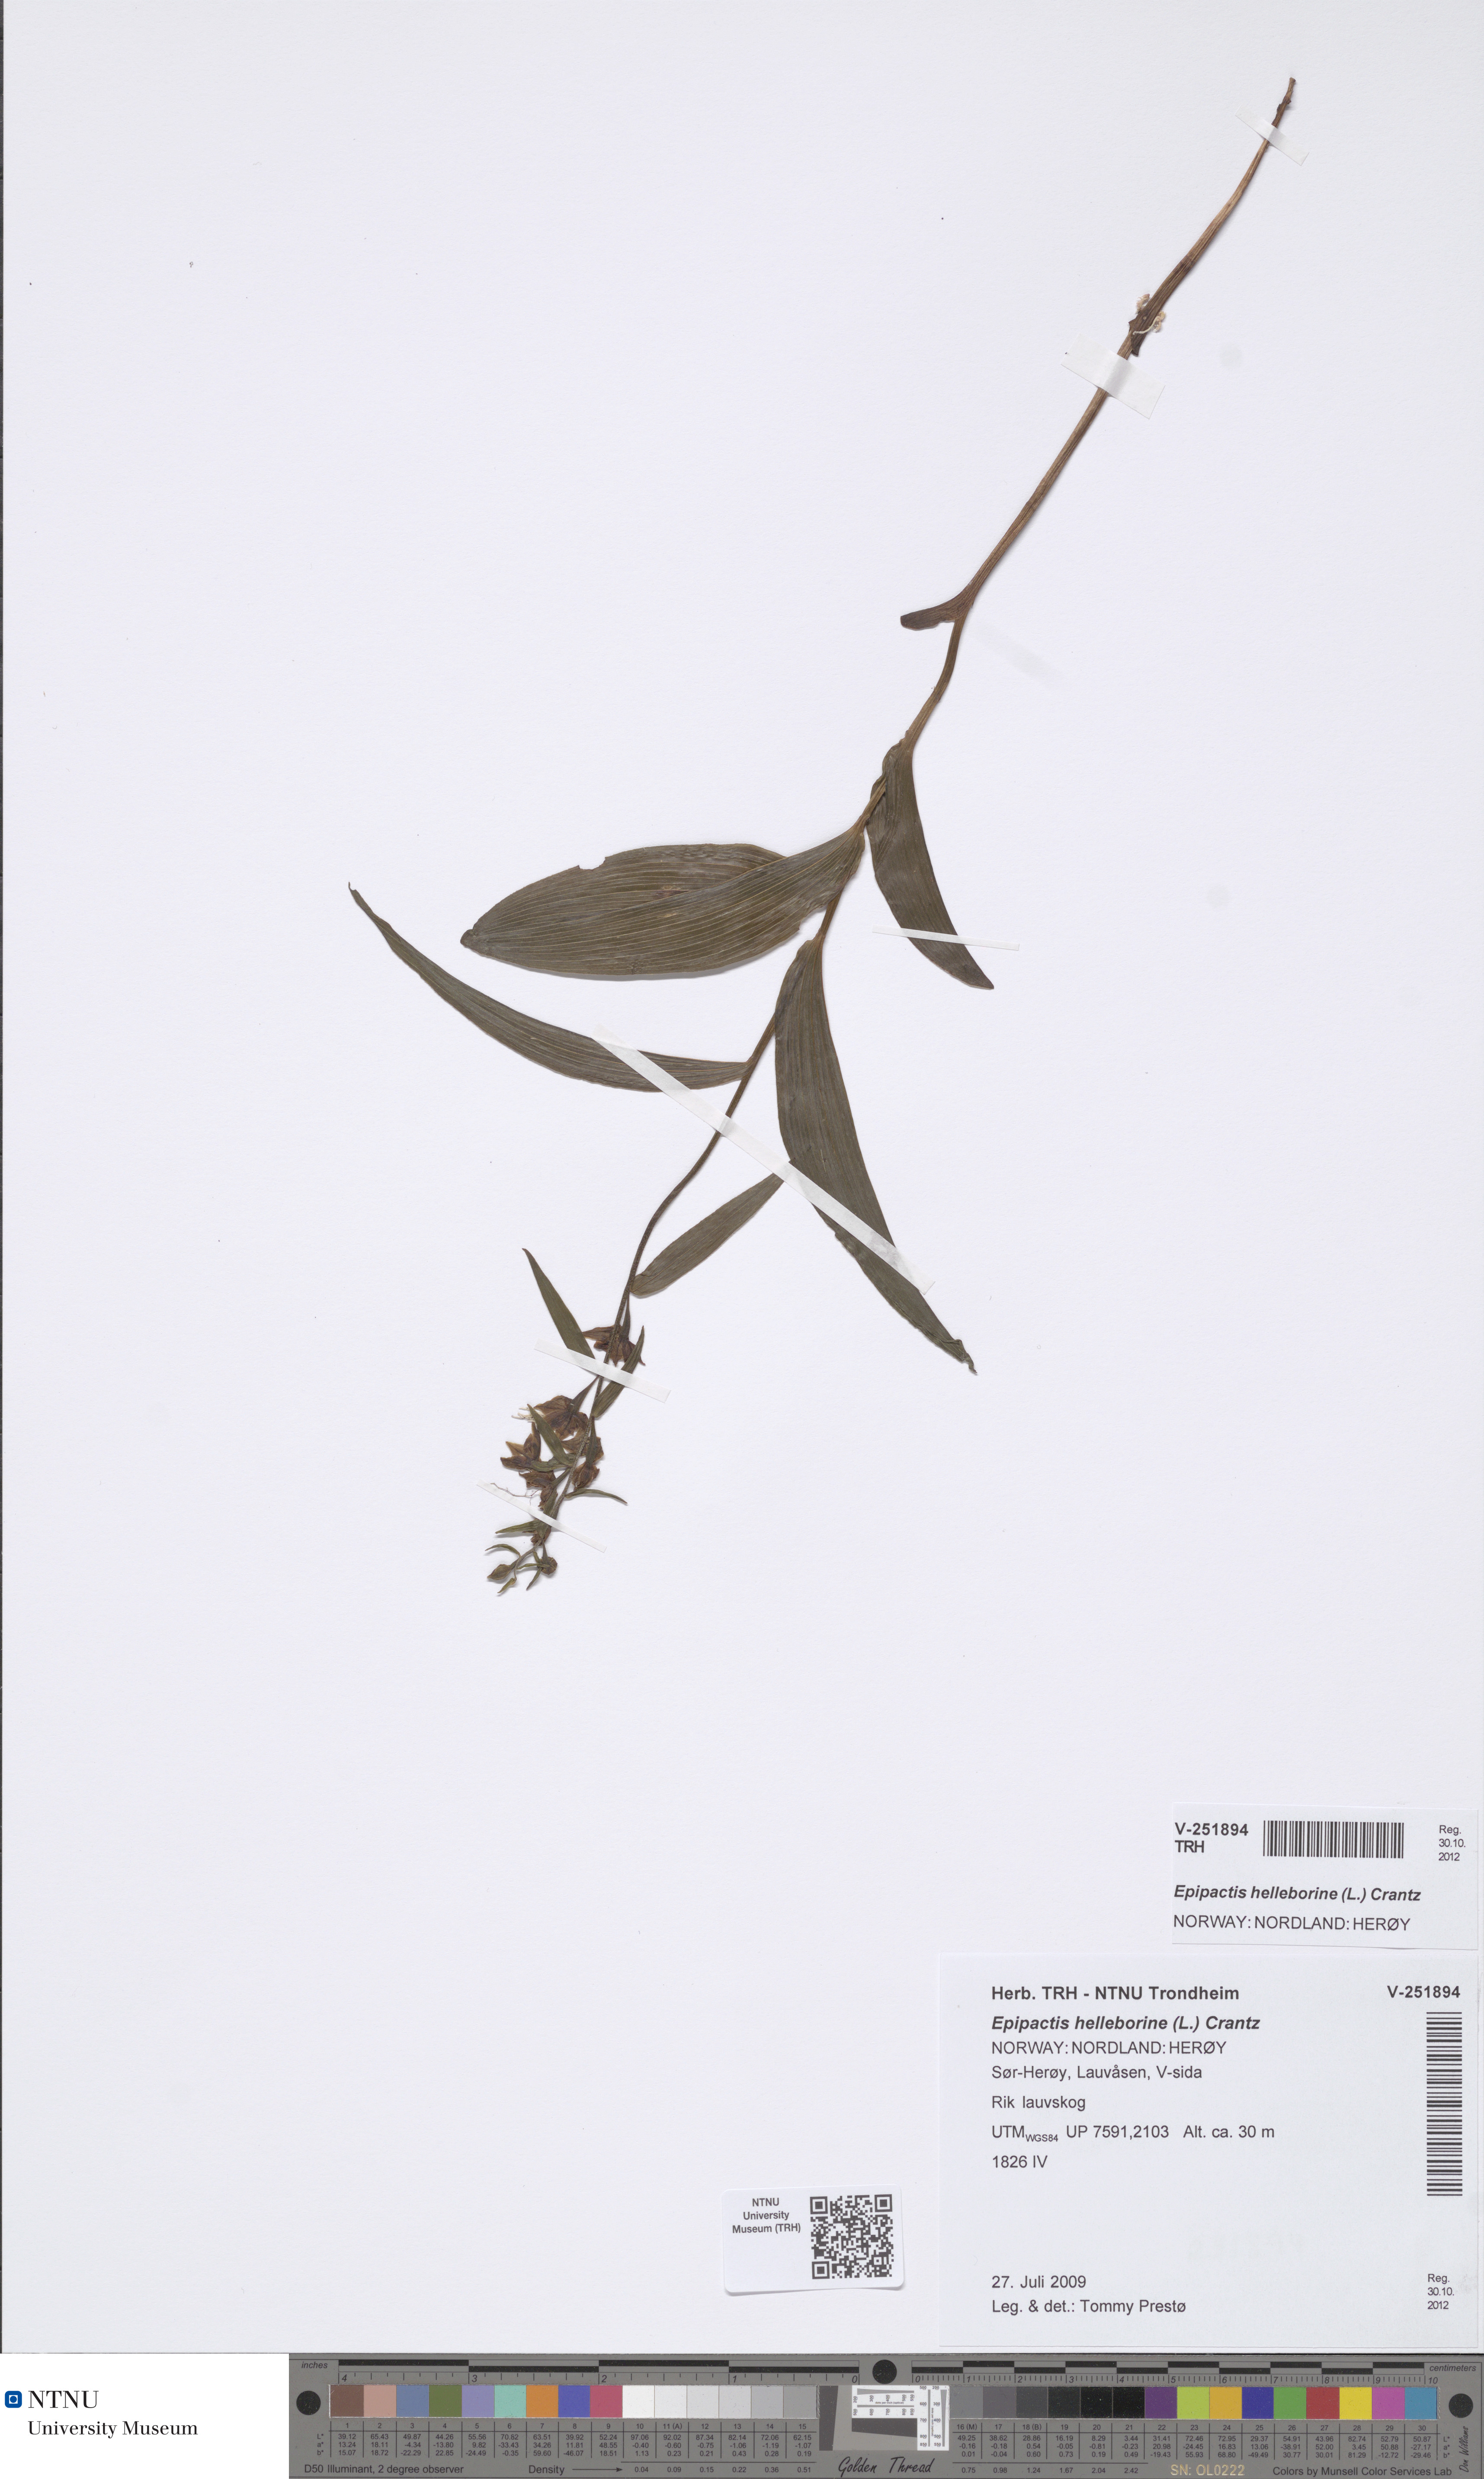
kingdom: Plantae
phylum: Tracheophyta
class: Liliopsida
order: Asparagales
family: Orchidaceae
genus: Epipactis
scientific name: Epipactis helleborine
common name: Broad-leaved helleborine
